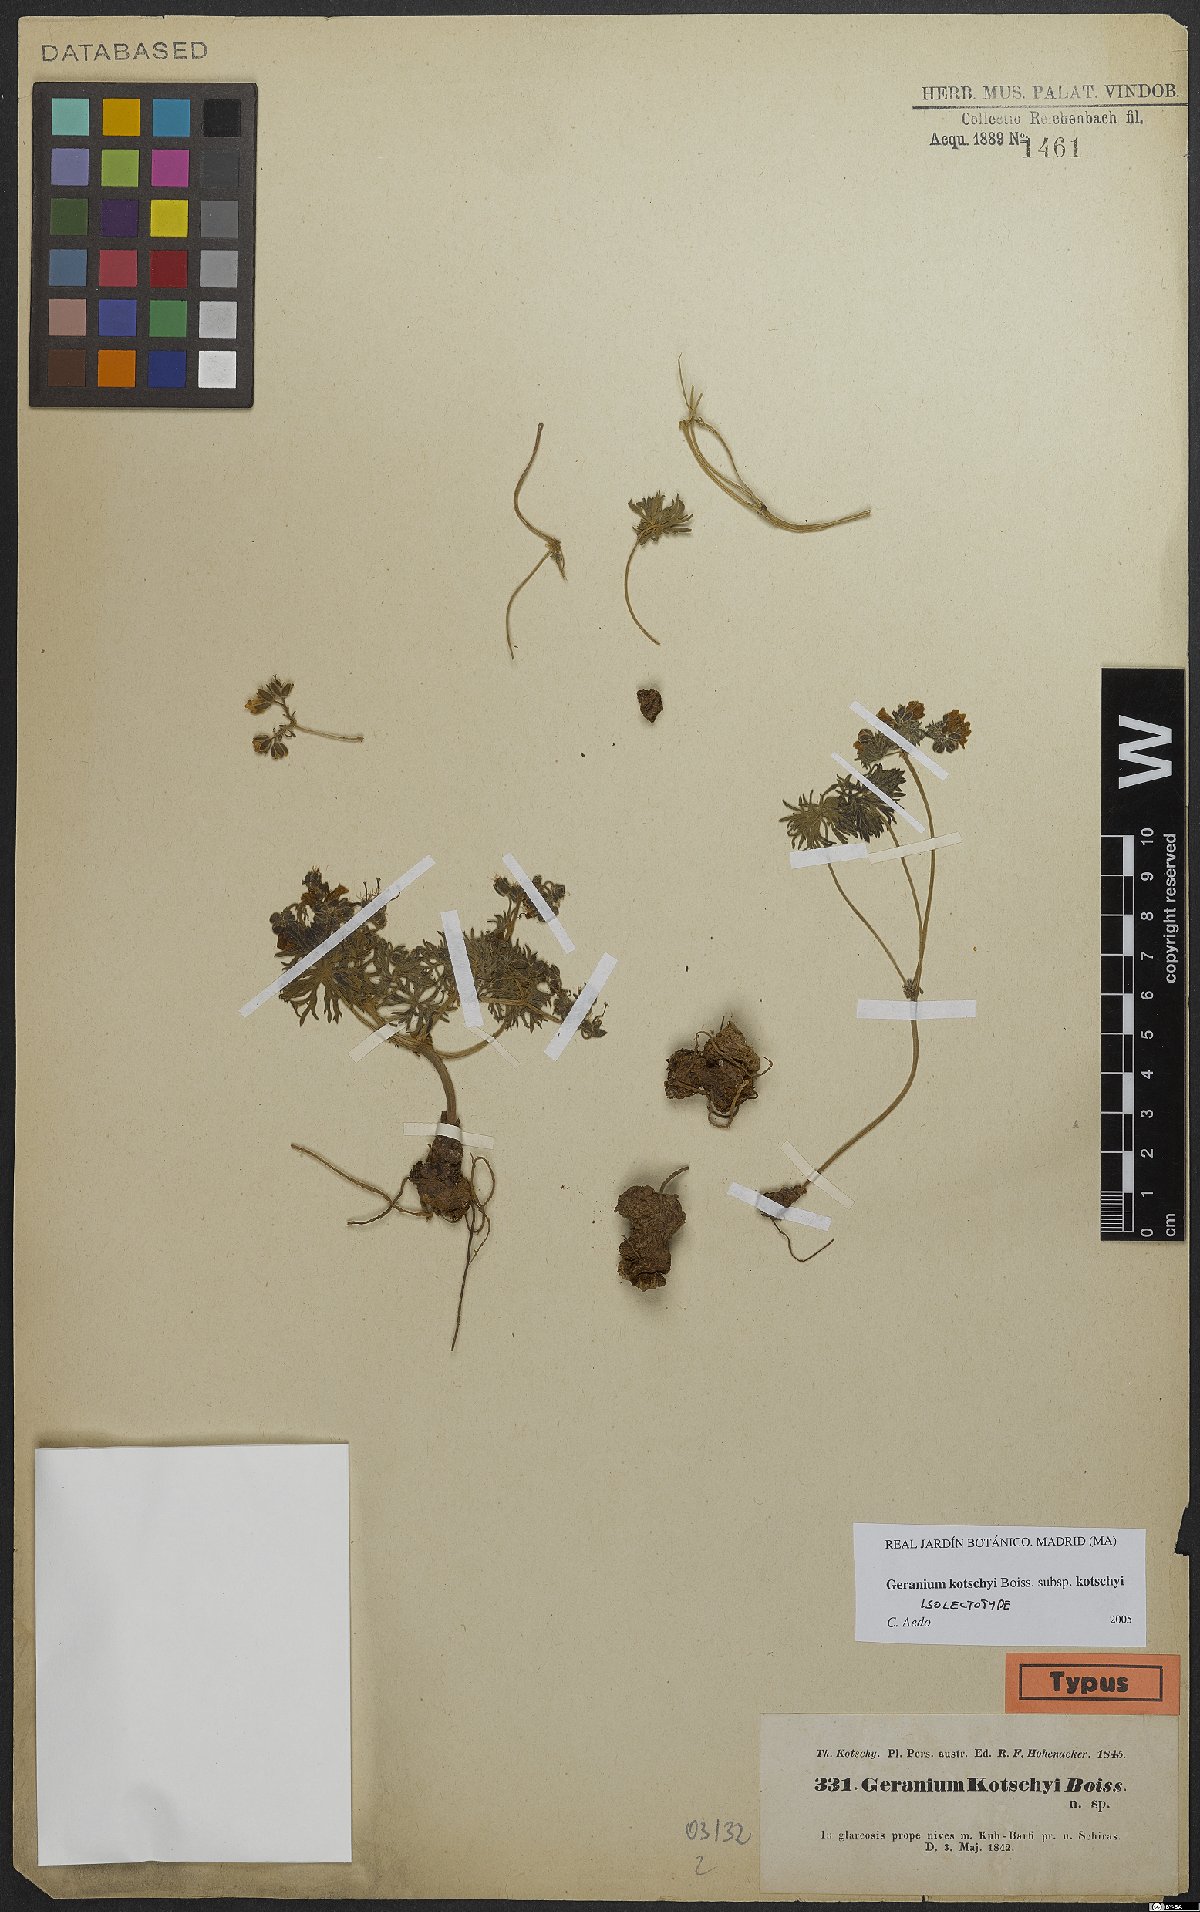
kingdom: Plantae
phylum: Tracheophyta
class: Magnoliopsida
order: Geraniales
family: Geraniaceae
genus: Geranium
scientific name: Geranium kotschyi
